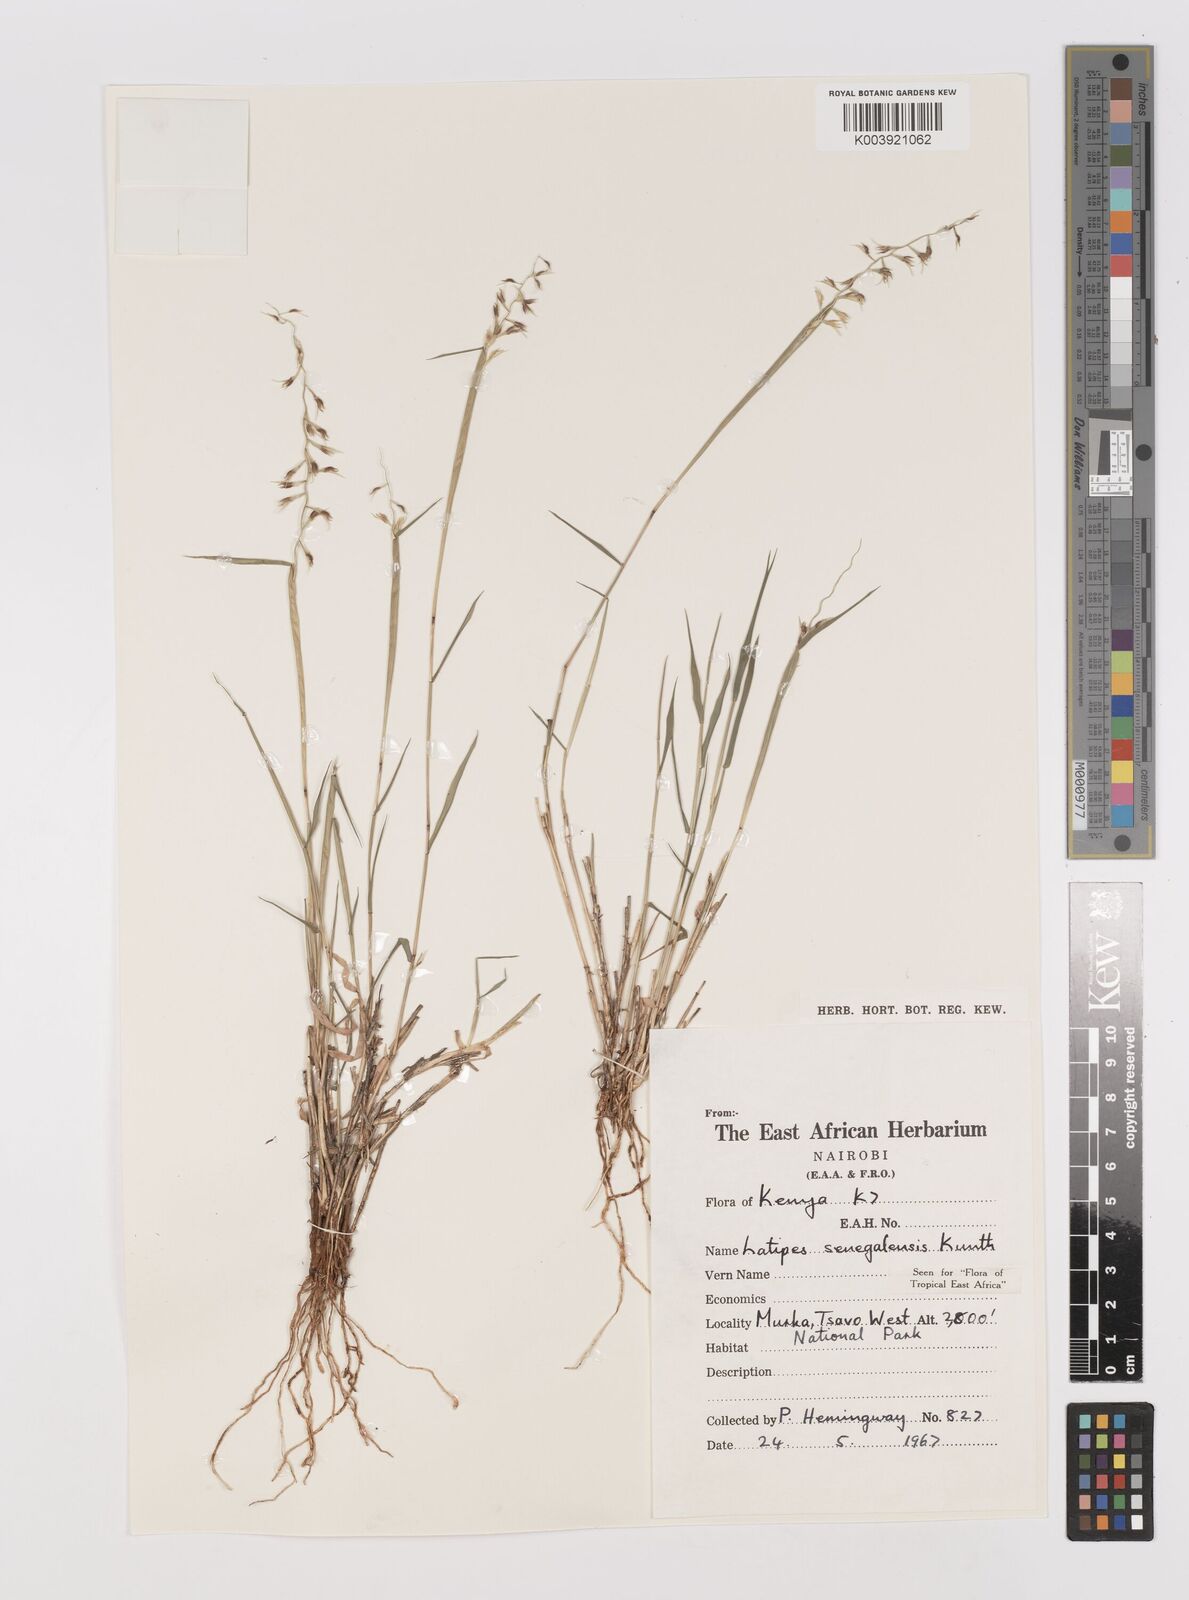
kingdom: Plantae
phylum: Tracheophyta
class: Liliopsida
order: Poales
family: Poaceae
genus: Leptothrium
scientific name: Leptothrium senegalense
